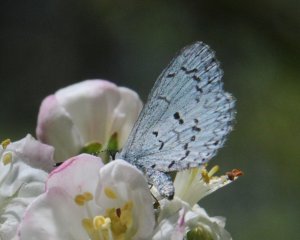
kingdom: Animalia
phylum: Arthropoda
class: Insecta
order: Lepidoptera
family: Lycaenidae
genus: Celastrina
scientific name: Celastrina lucia
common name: Northern Spring Azure
